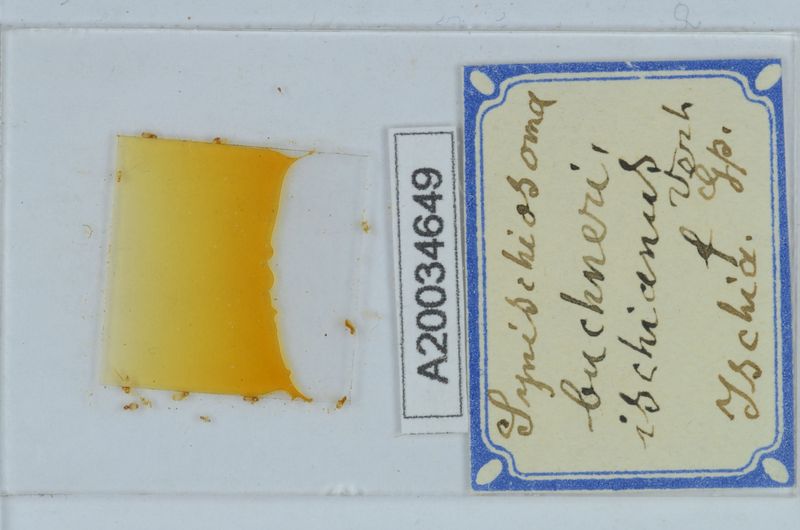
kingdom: Animalia
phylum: Arthropoda
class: Diplopoda
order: Chordeumatida
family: Craspedosomatidae
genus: Synischiosoma
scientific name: Synischiosoma buchneri
